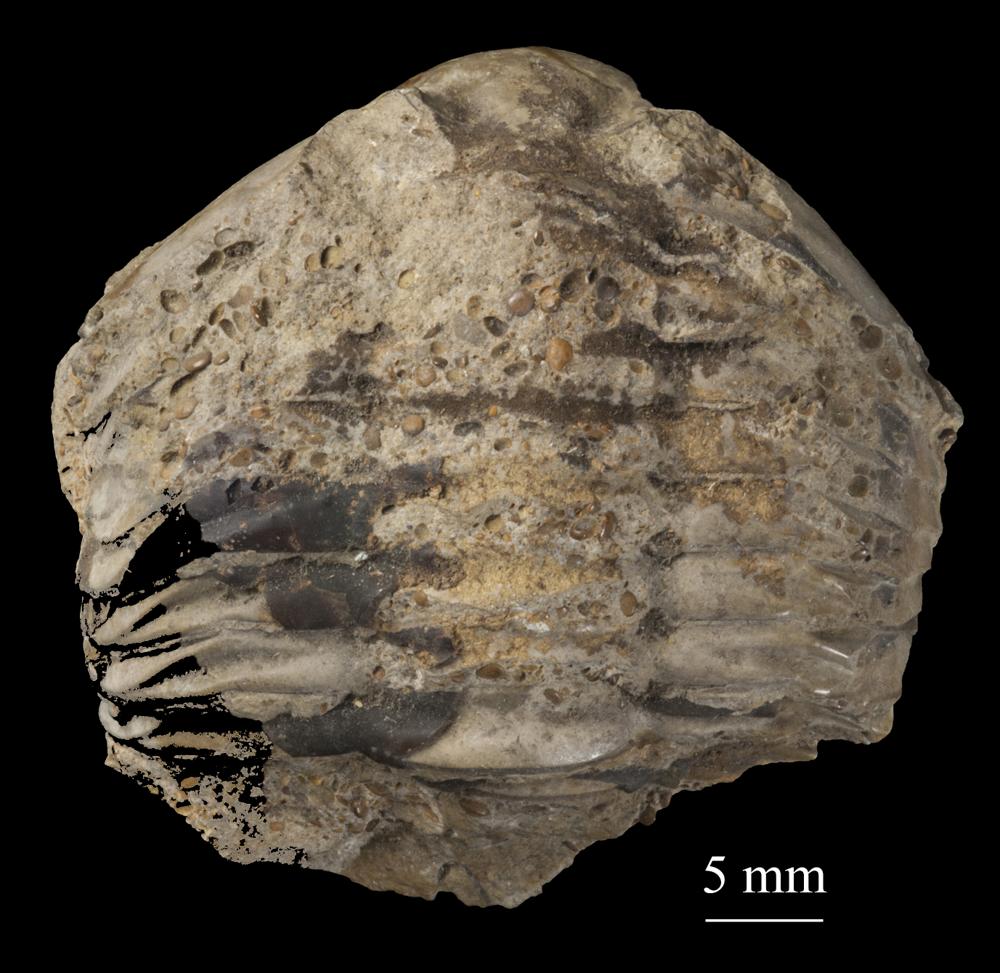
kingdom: Animalia
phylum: Arthropoda
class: Trilobita
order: Asaphida
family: Asaphidae
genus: Asaphus
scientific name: Asaphus kowalewskii
